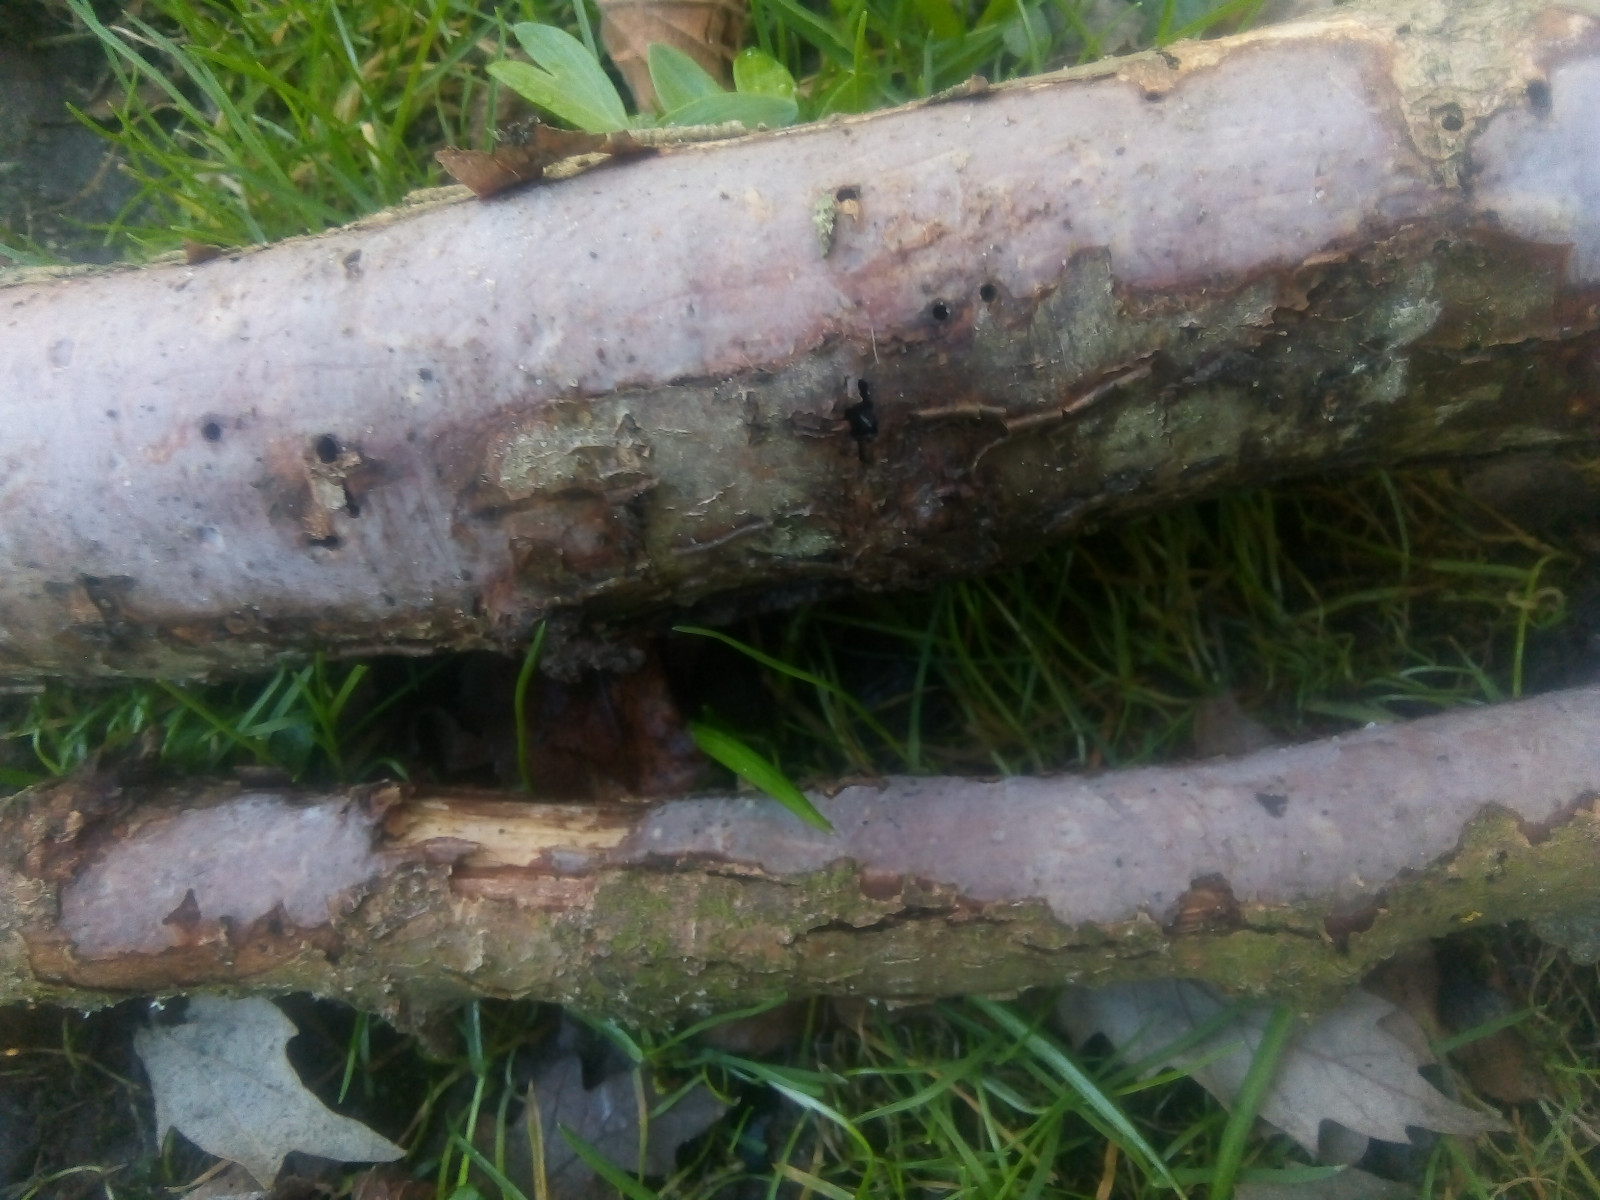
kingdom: Fungi
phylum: Basidiomycota
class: Agaricomycetes
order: Corticiales
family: Vuilleminiaceae
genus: Vuilleminia
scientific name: Vuilleminia coryli
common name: hassel-barksprænger
